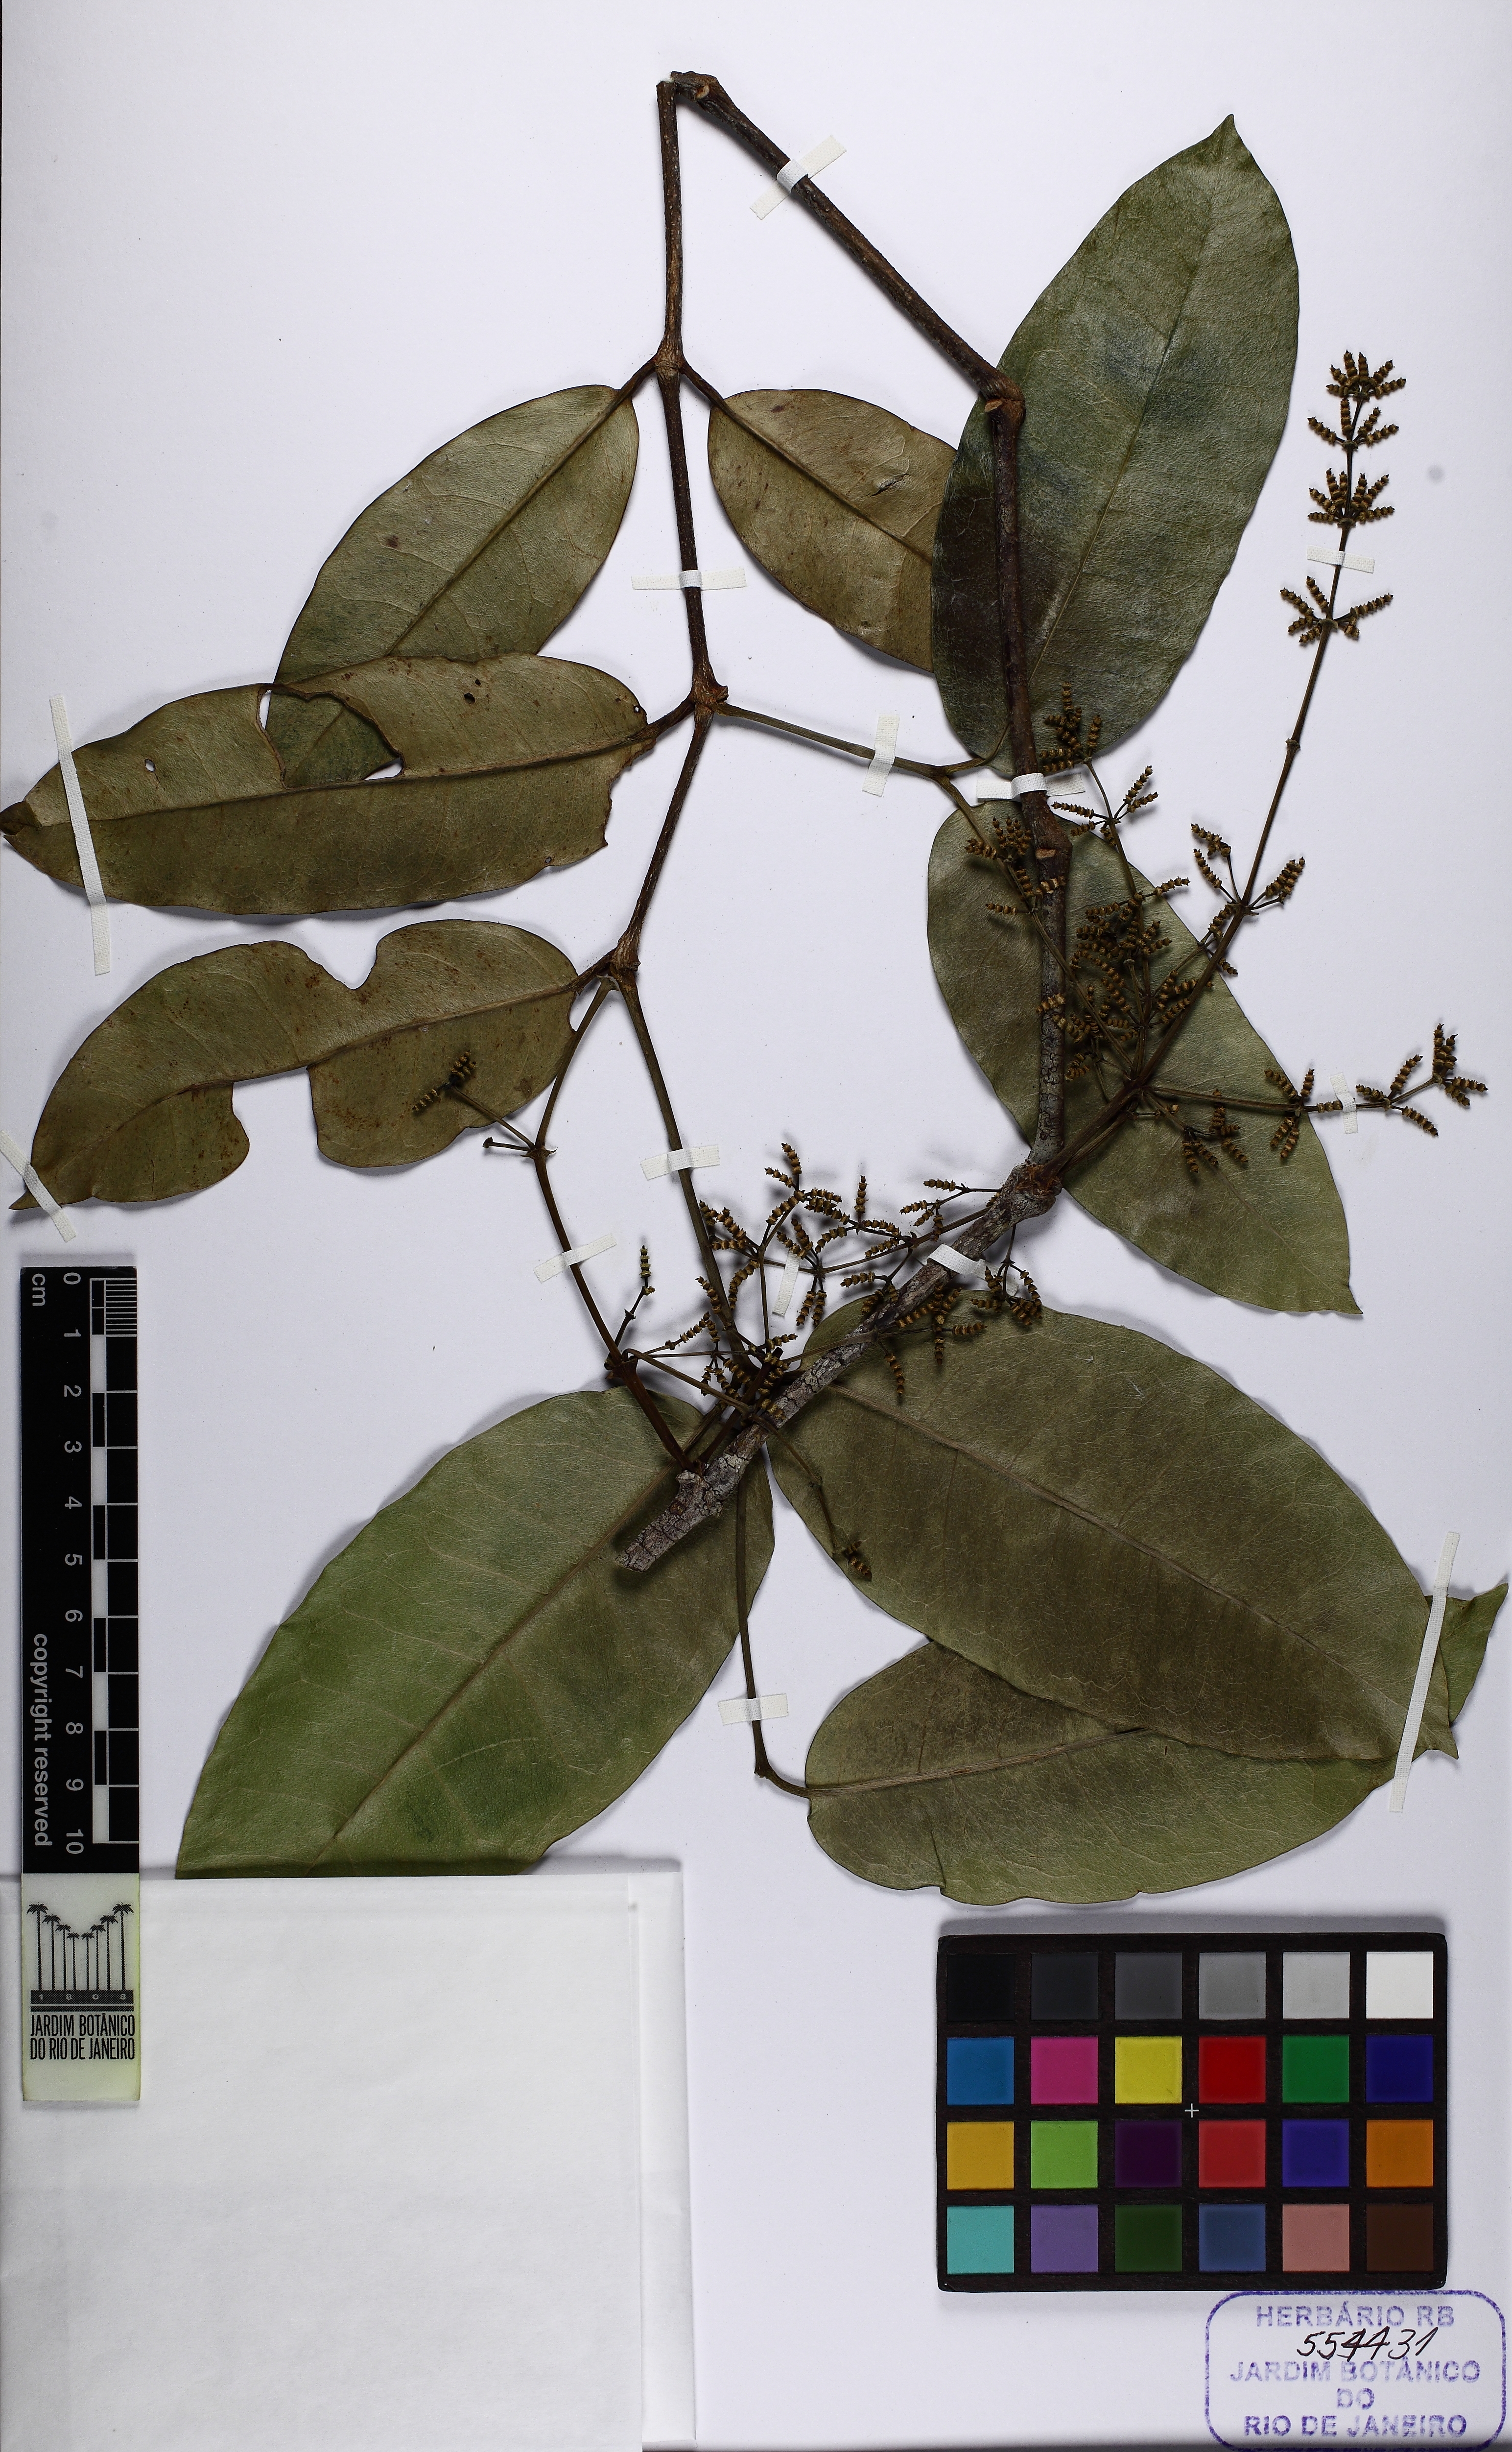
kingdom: Plantae
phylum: Tracheophyta
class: Gnetopsida
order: Gnetales
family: Gnetaceae
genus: Gnetum
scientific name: Gnetum
